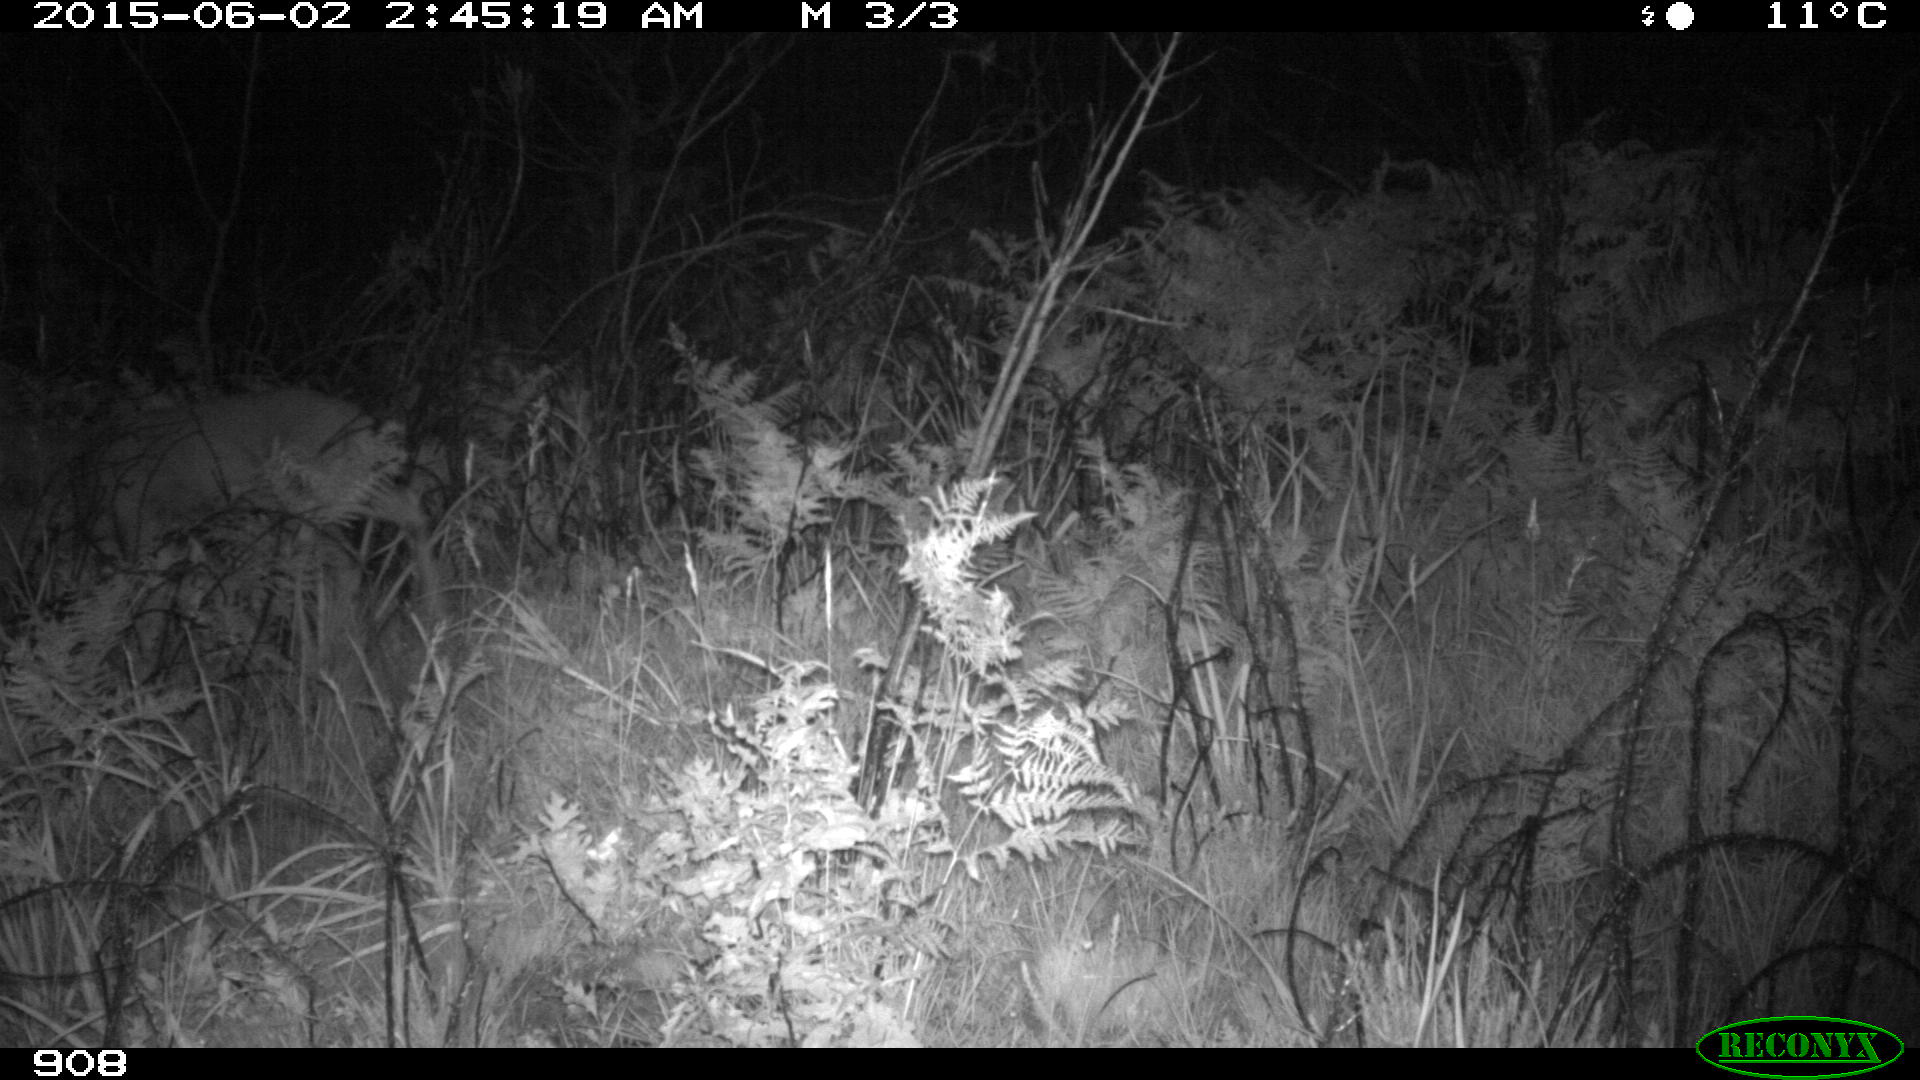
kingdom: Animalia
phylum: Chordata
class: Mammalia
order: Artiodactyla
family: Cervidae
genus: Capreolus
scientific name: Capreolus capreolus
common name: Western roe deer
